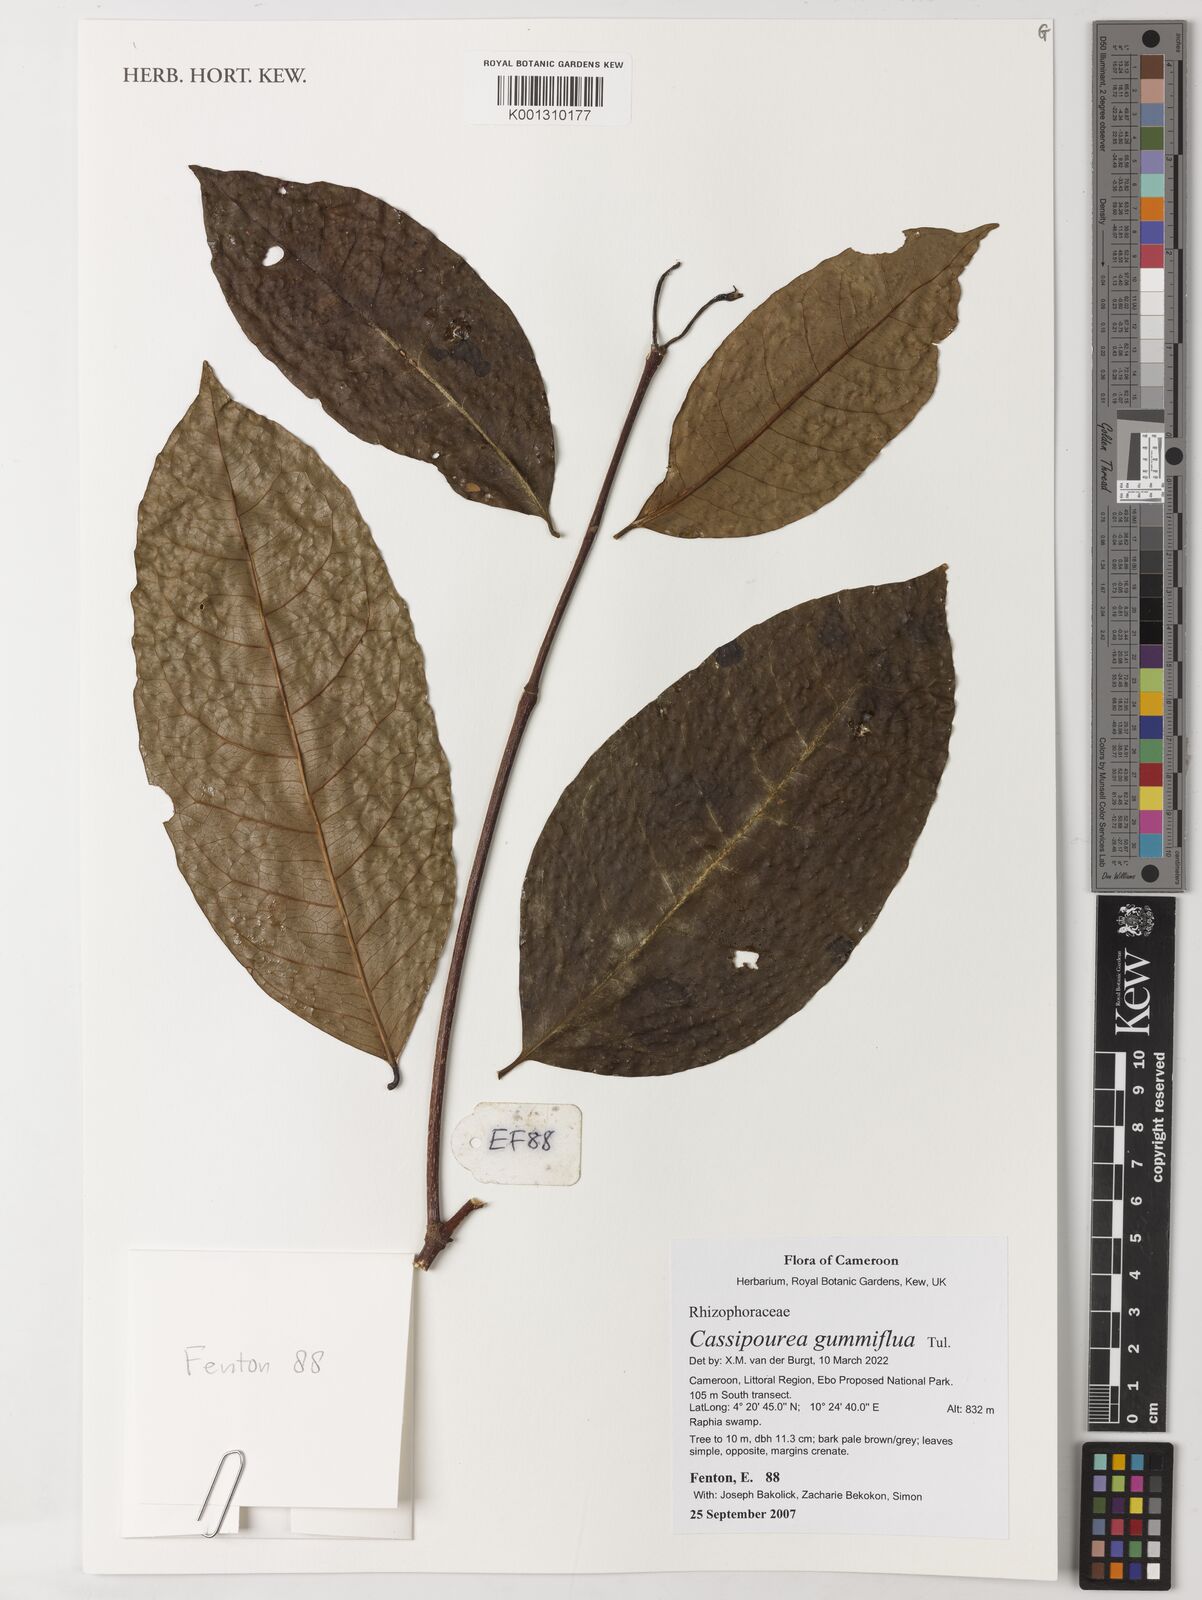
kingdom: Plantae
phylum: Tracheophyta
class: Magnoliopsida
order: Malpighiales
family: Rhizophoraceae
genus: Cassipourea
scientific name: Cassipourea gummiflua
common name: Large-leaved onionwood
